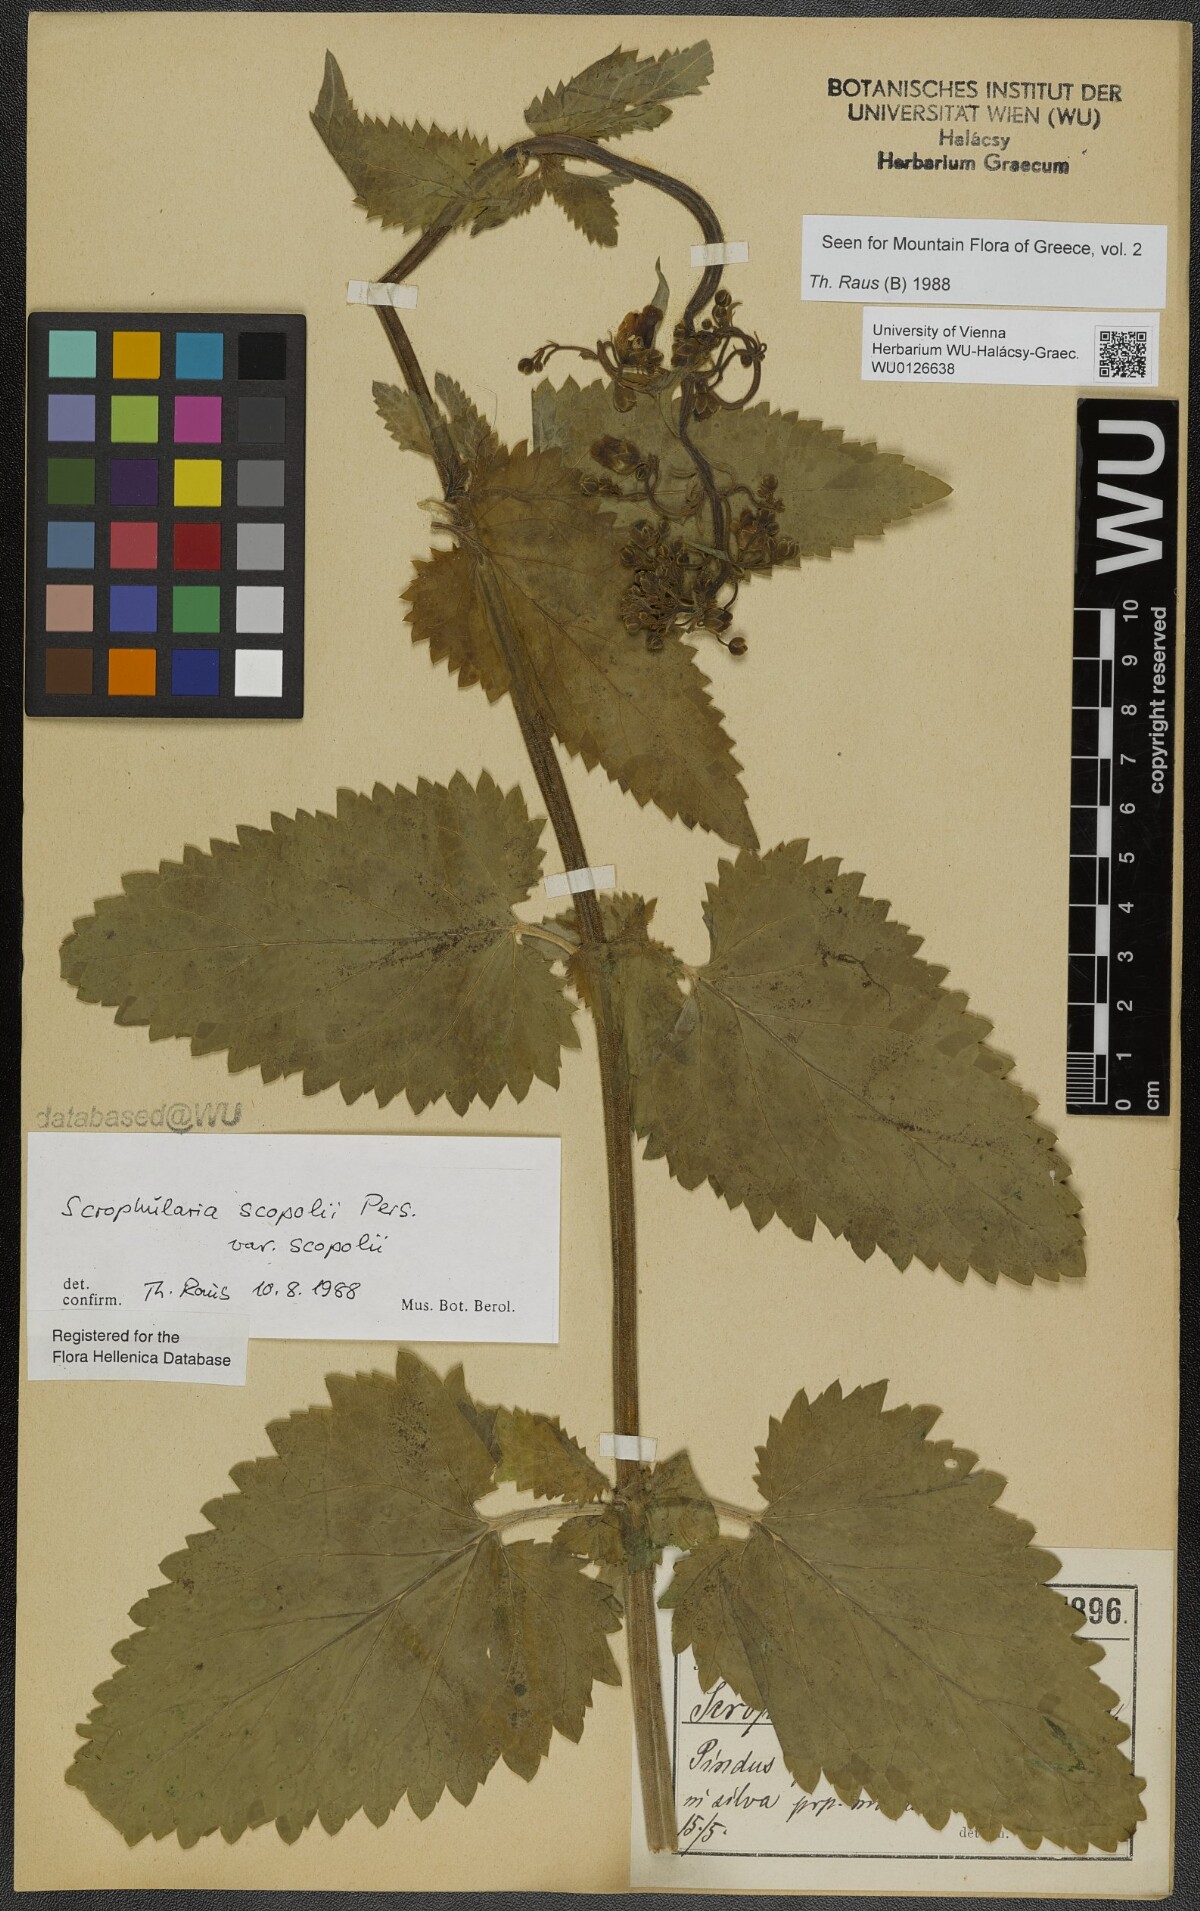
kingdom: Plantae
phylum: Tracheophyta
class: Magnoliopsida
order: Lamiales
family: Scrophulariaceae
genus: Scrophularia
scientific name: Scrophularia scopolii
